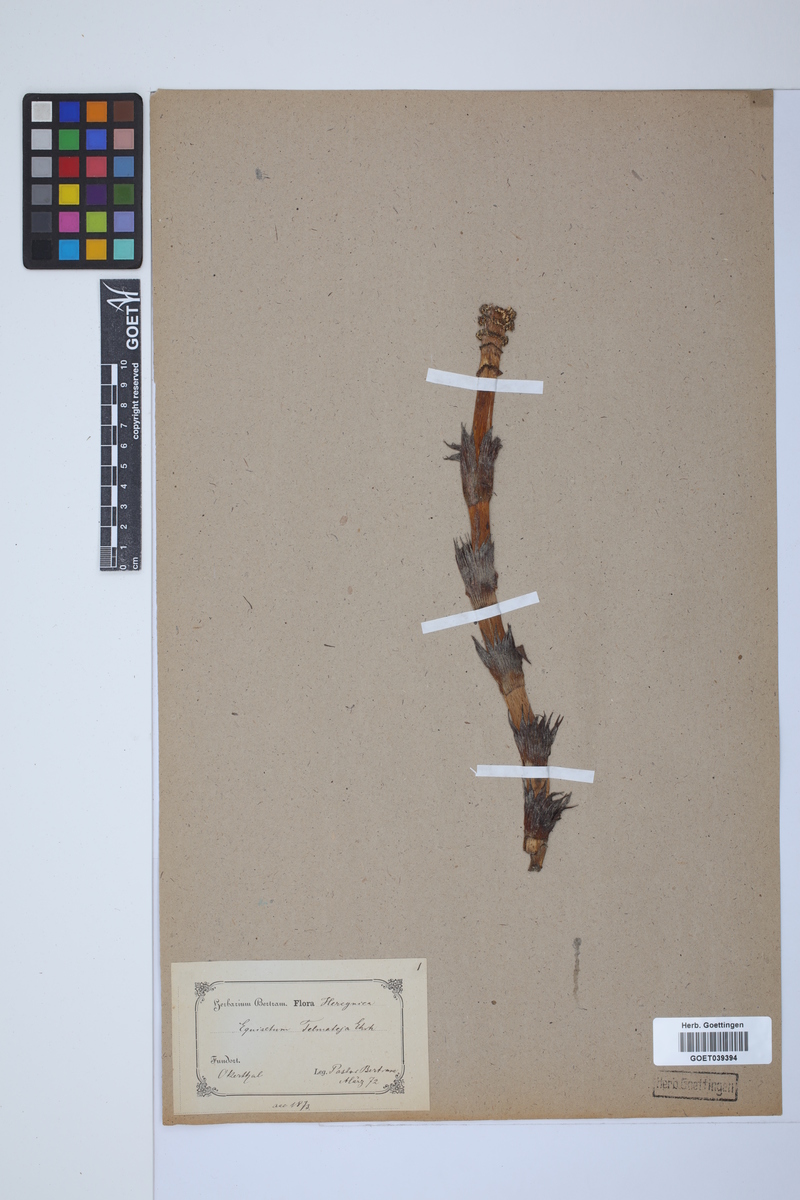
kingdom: Plantae
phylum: Tracheophyta
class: Polypodiopsida
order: Equisetales
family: Equisetaceae
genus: Equisetum
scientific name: Equisetum telmateia
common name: Great horsetail
